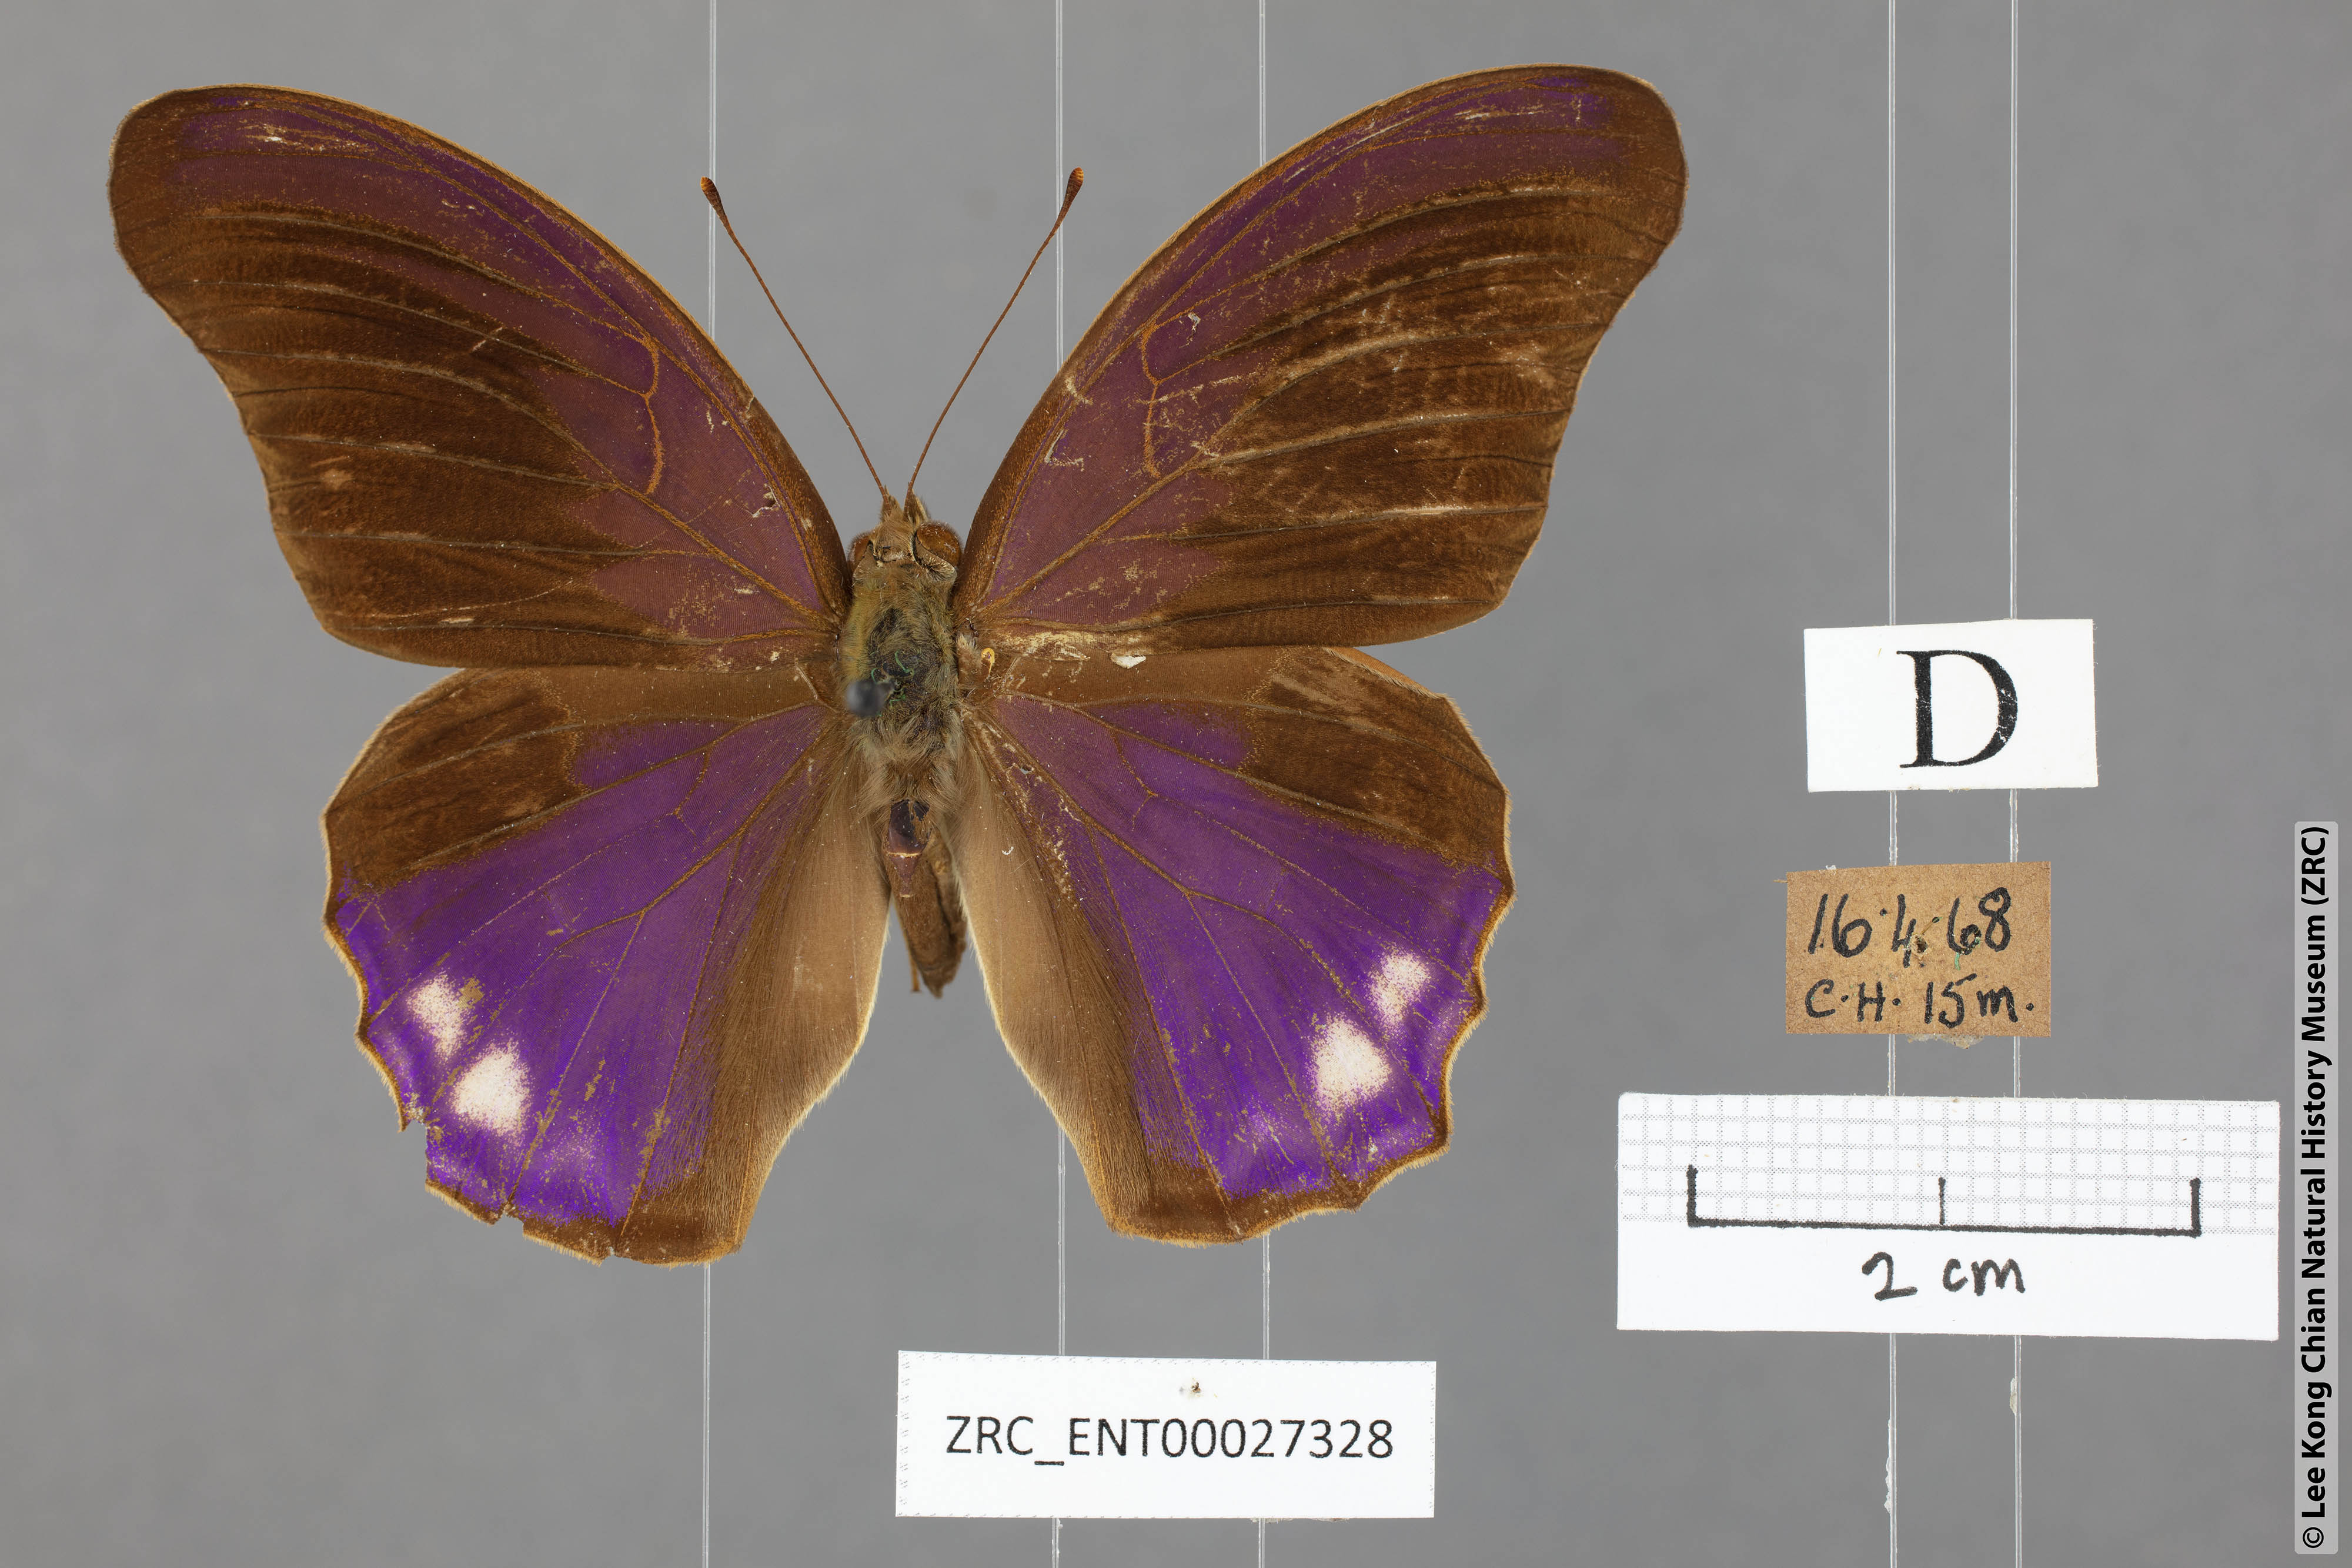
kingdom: Animalia
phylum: Arthropoda
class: Insecta
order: Lepidoptera
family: Nymphalidae
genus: Terinos
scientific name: Terinos terpander
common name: Royal assyrian
